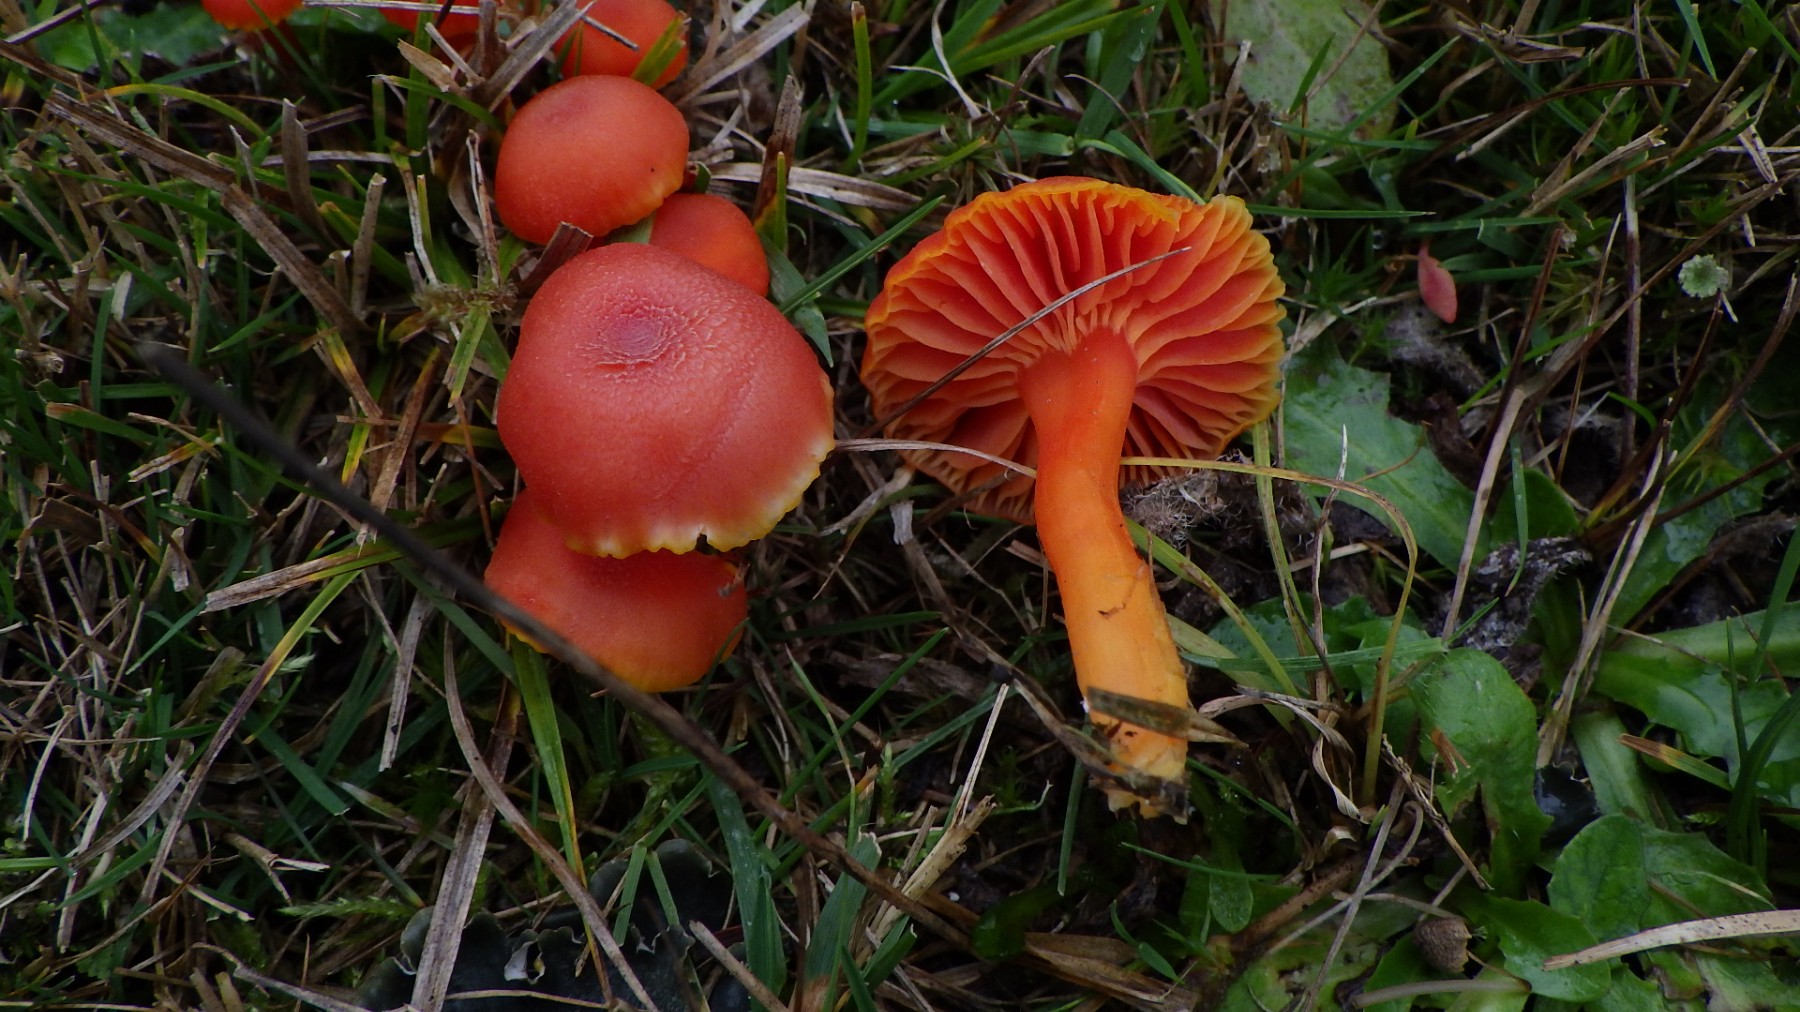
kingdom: Fungi
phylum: Basidiomycota
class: Agaricomycetes
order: Agaricales
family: Hygrophoraceae
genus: Hygrocybe
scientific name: Hygrocybe miniata
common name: mønje-vokshat
